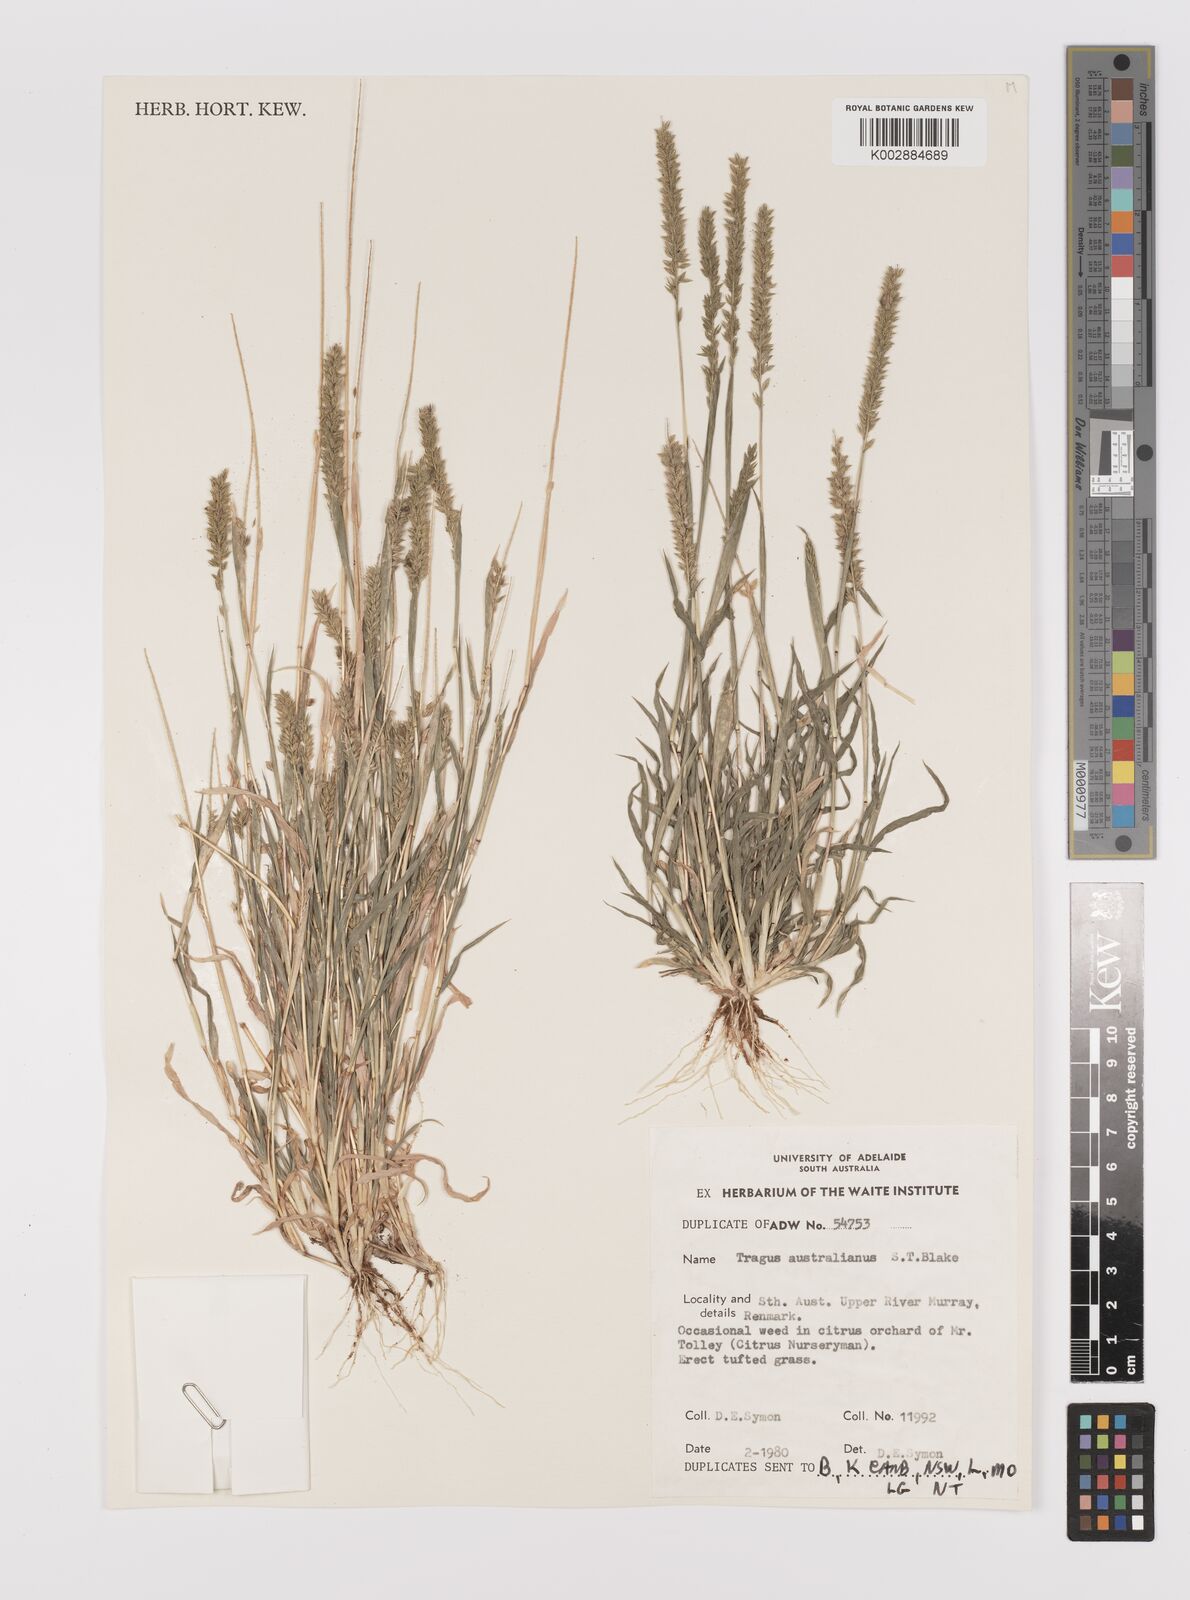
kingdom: Plantae
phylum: Tracheophyta
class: Liliopsida
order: Poales
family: Poaceae
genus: Tragus
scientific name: Tragus australianus
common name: Australian bur-grass
